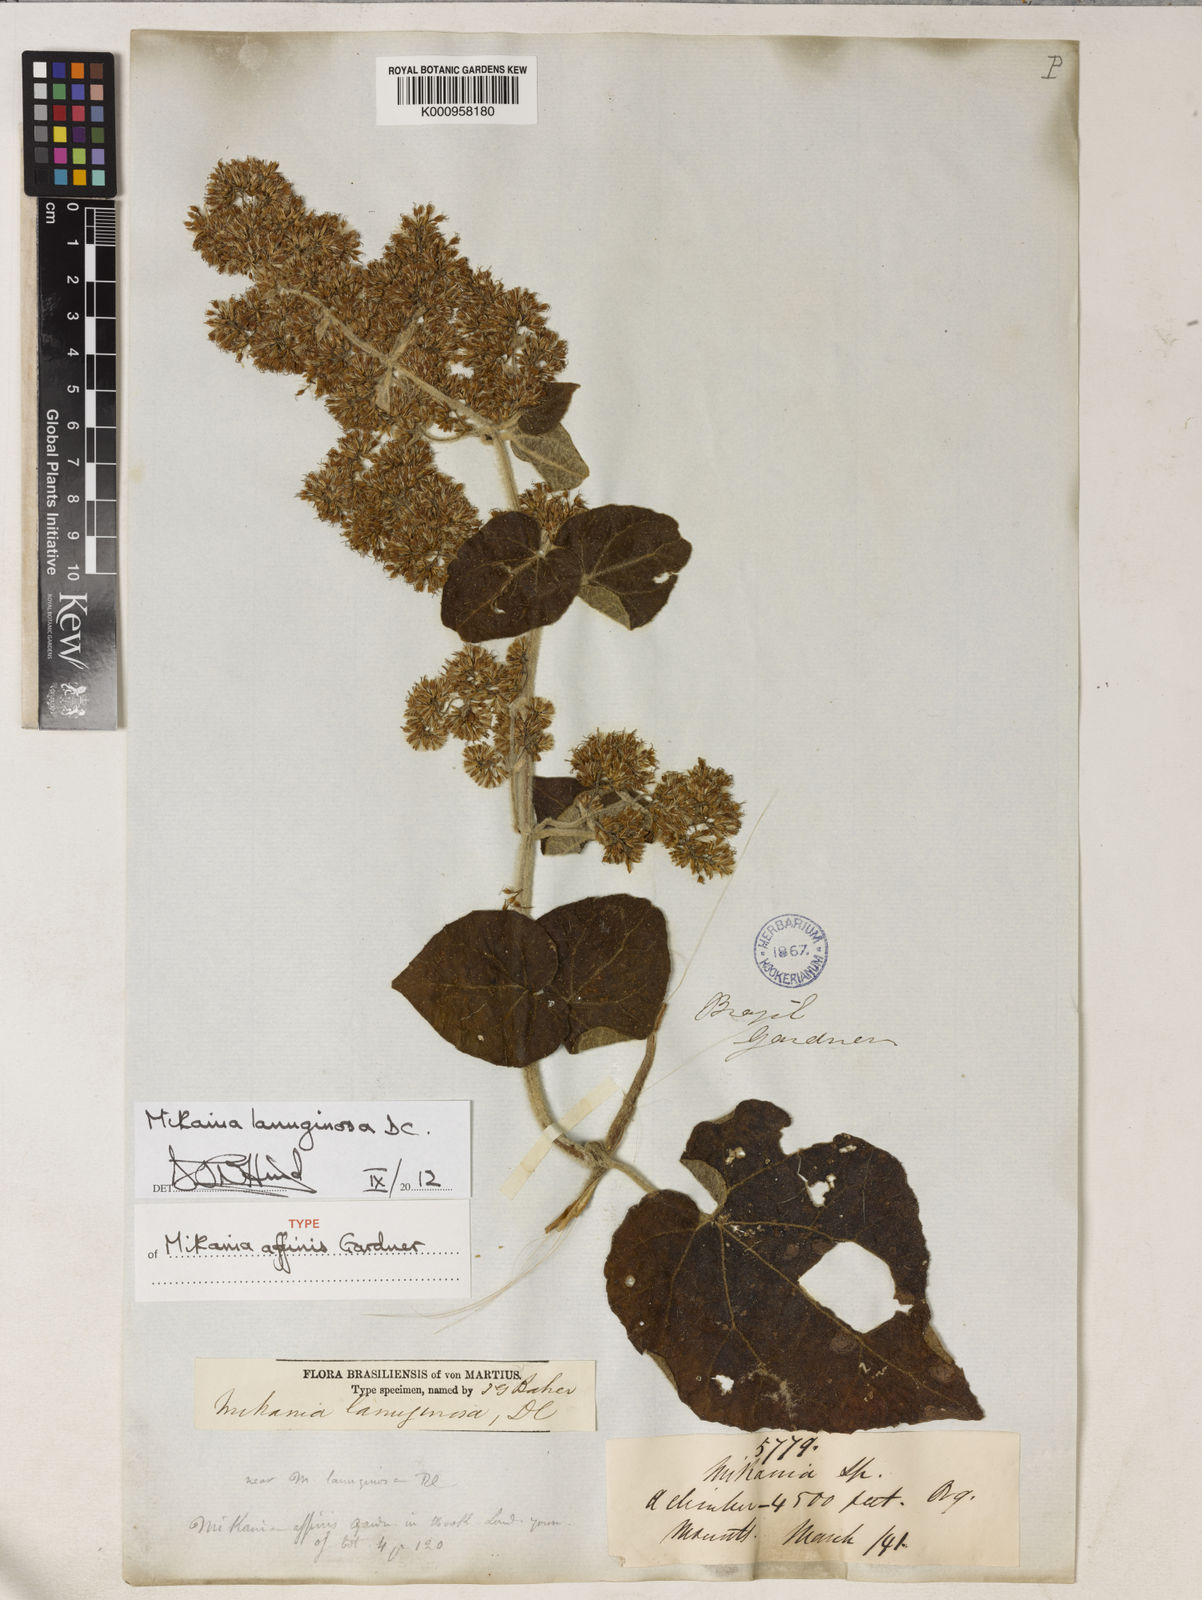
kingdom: Plantae
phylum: Tracheophyta
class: Magnoliopsida
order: Asterales
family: Asteraceae
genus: Mikania
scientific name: Mikania banisteriae
